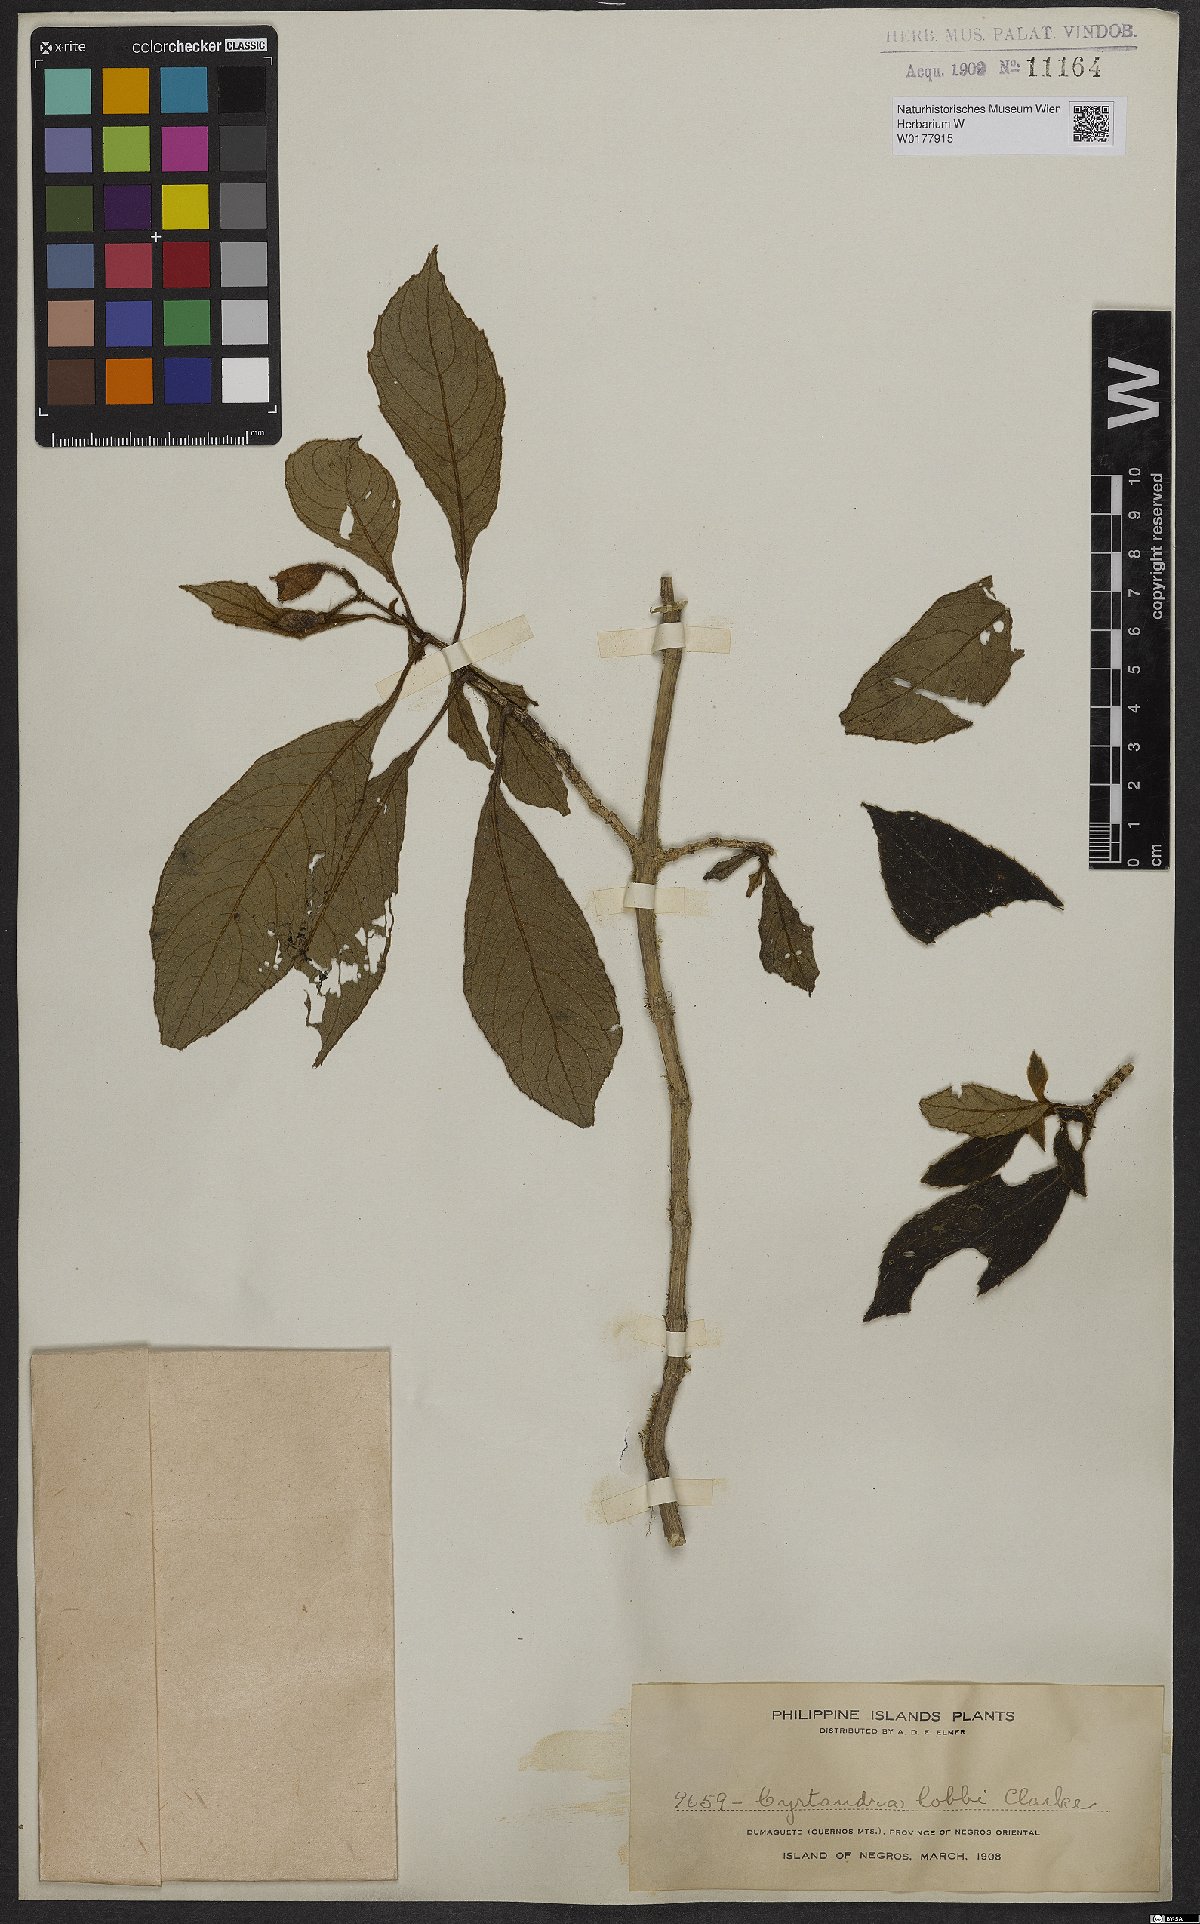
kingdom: Plantae
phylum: Tracheophyta
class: Magnoliopsida
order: Lamiales
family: Gesneriaceae
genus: Cyrtandra
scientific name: Cyrtandra
